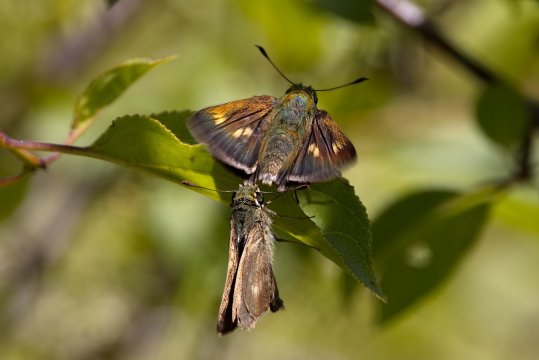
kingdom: Animalia
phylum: Arthropoda
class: Insecta
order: Lepidoptera
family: Hesperiidae
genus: Polites
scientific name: Polites egeremet
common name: Northern Broken-Dash
